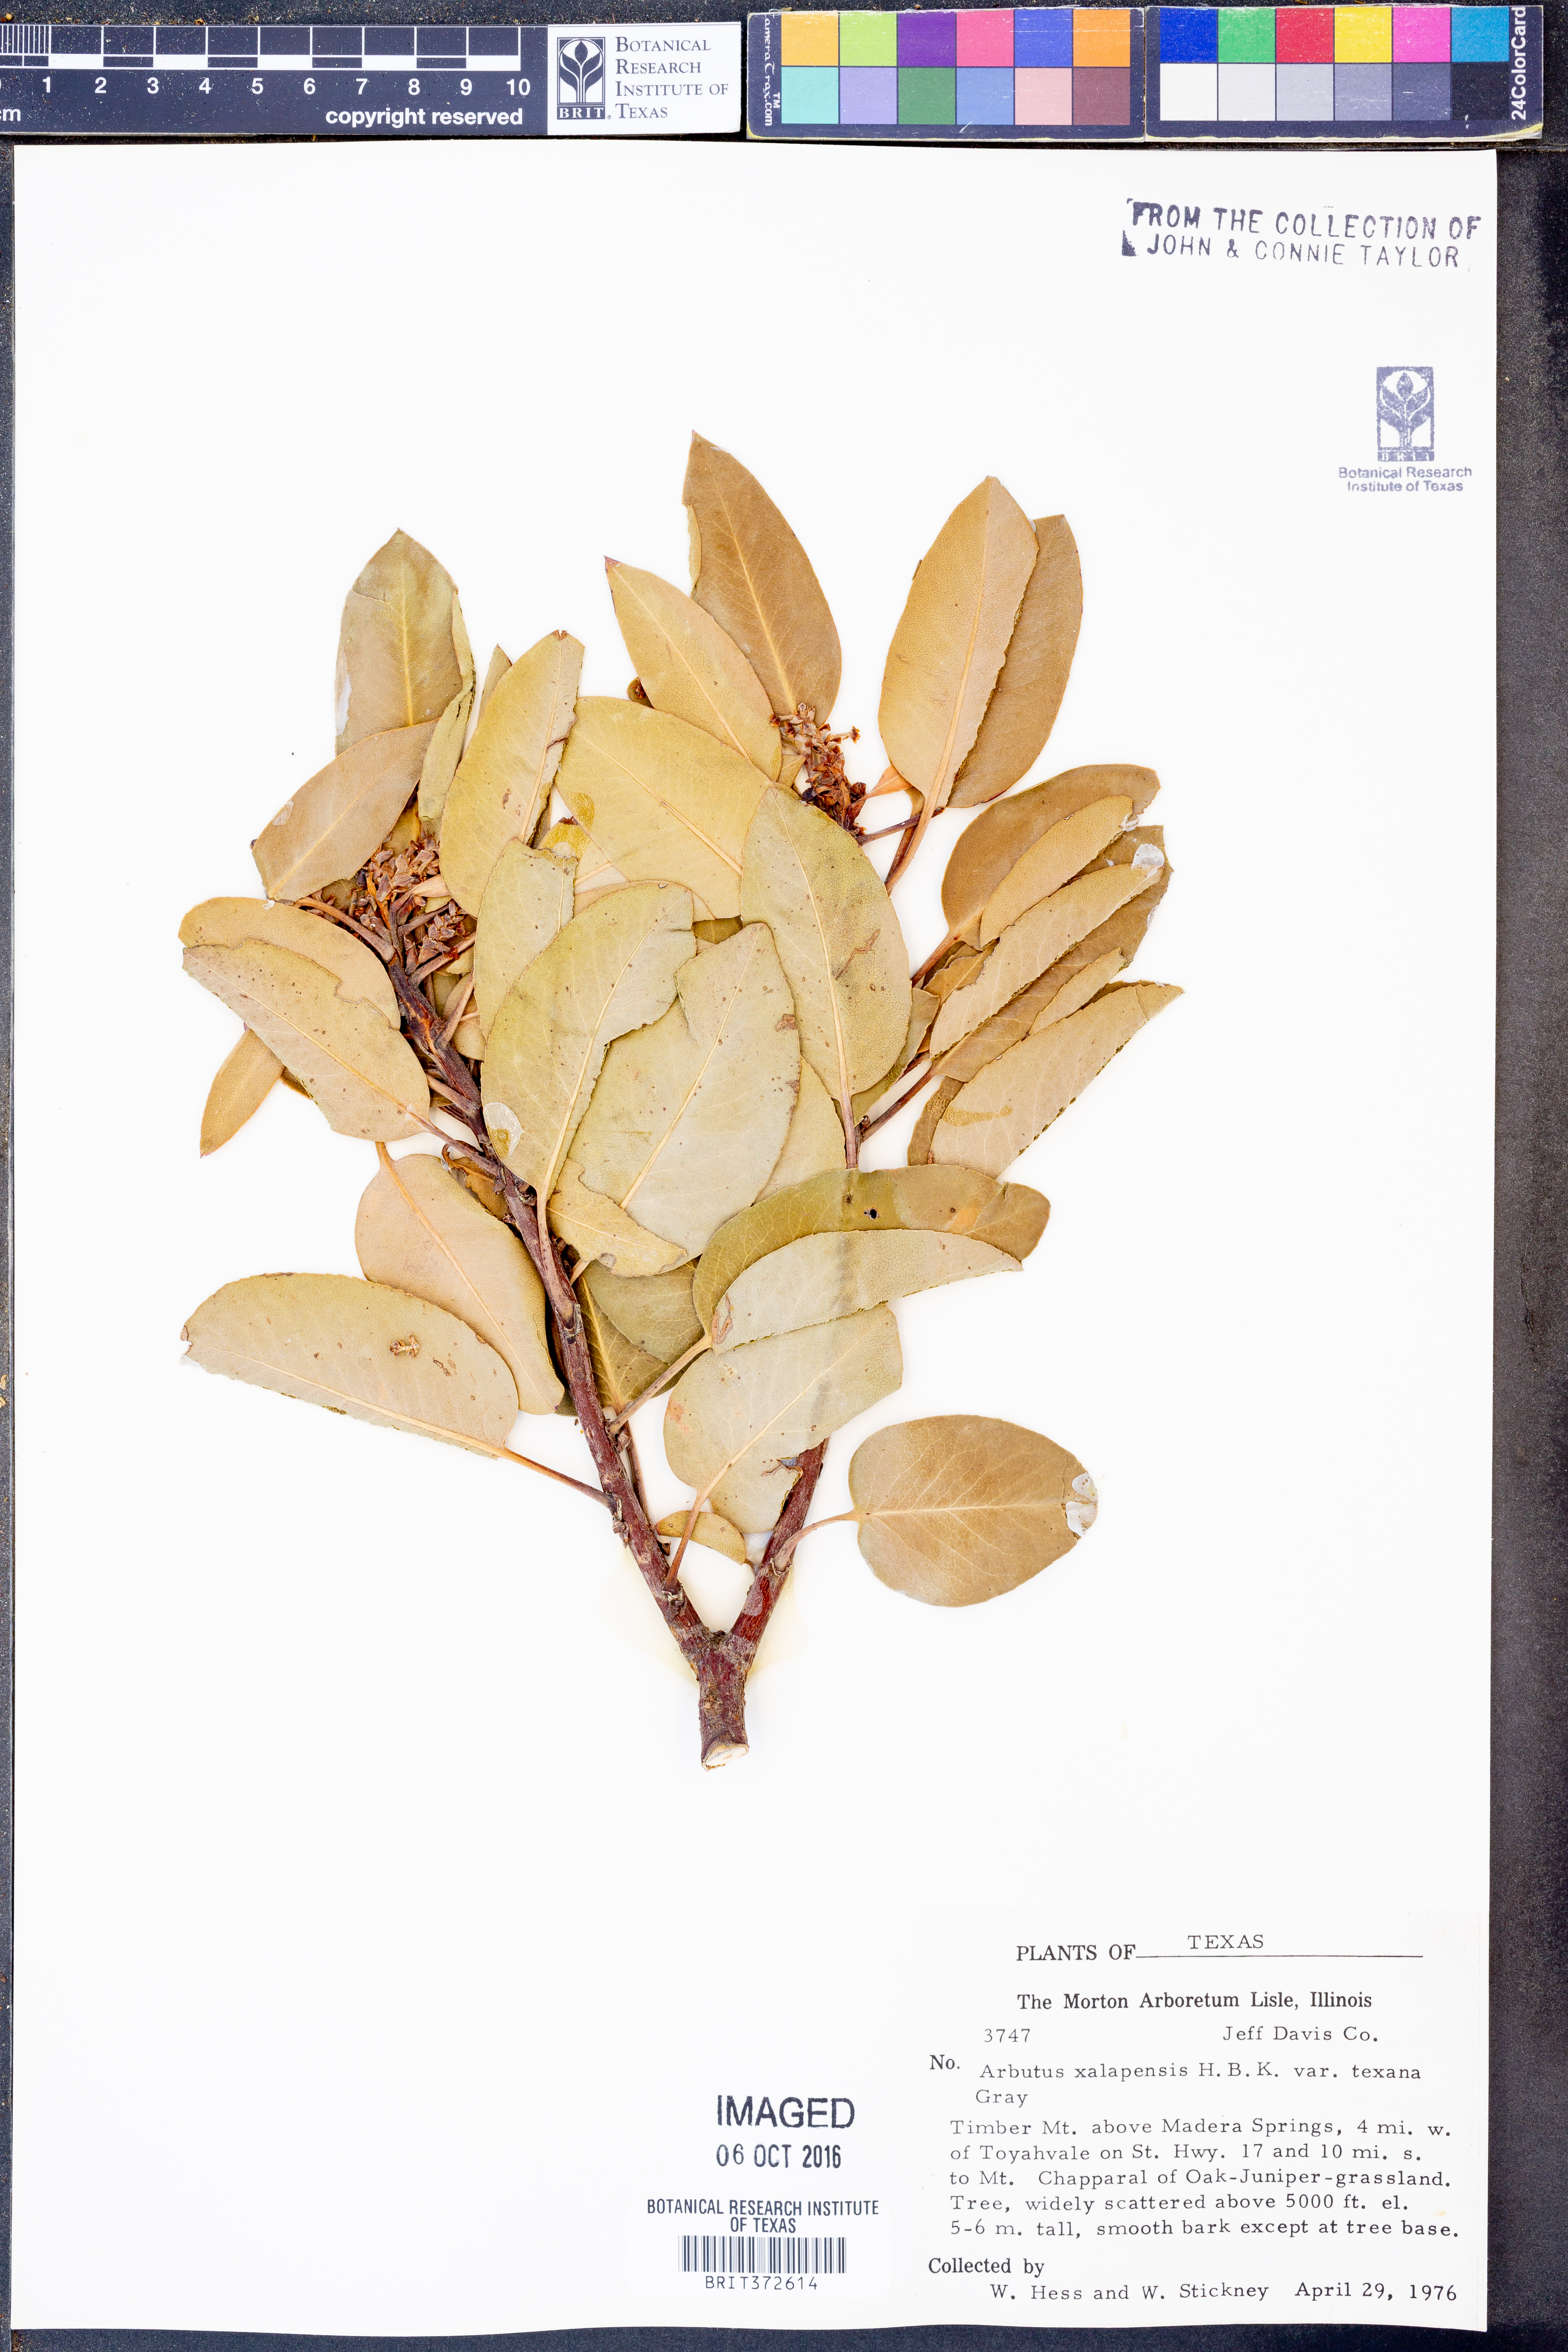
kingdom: Plantae
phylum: Tracheophyta
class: Magnoliopsida
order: Ericales
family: Ericaceae
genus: Arbutus
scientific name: Arbutus xalapensis
